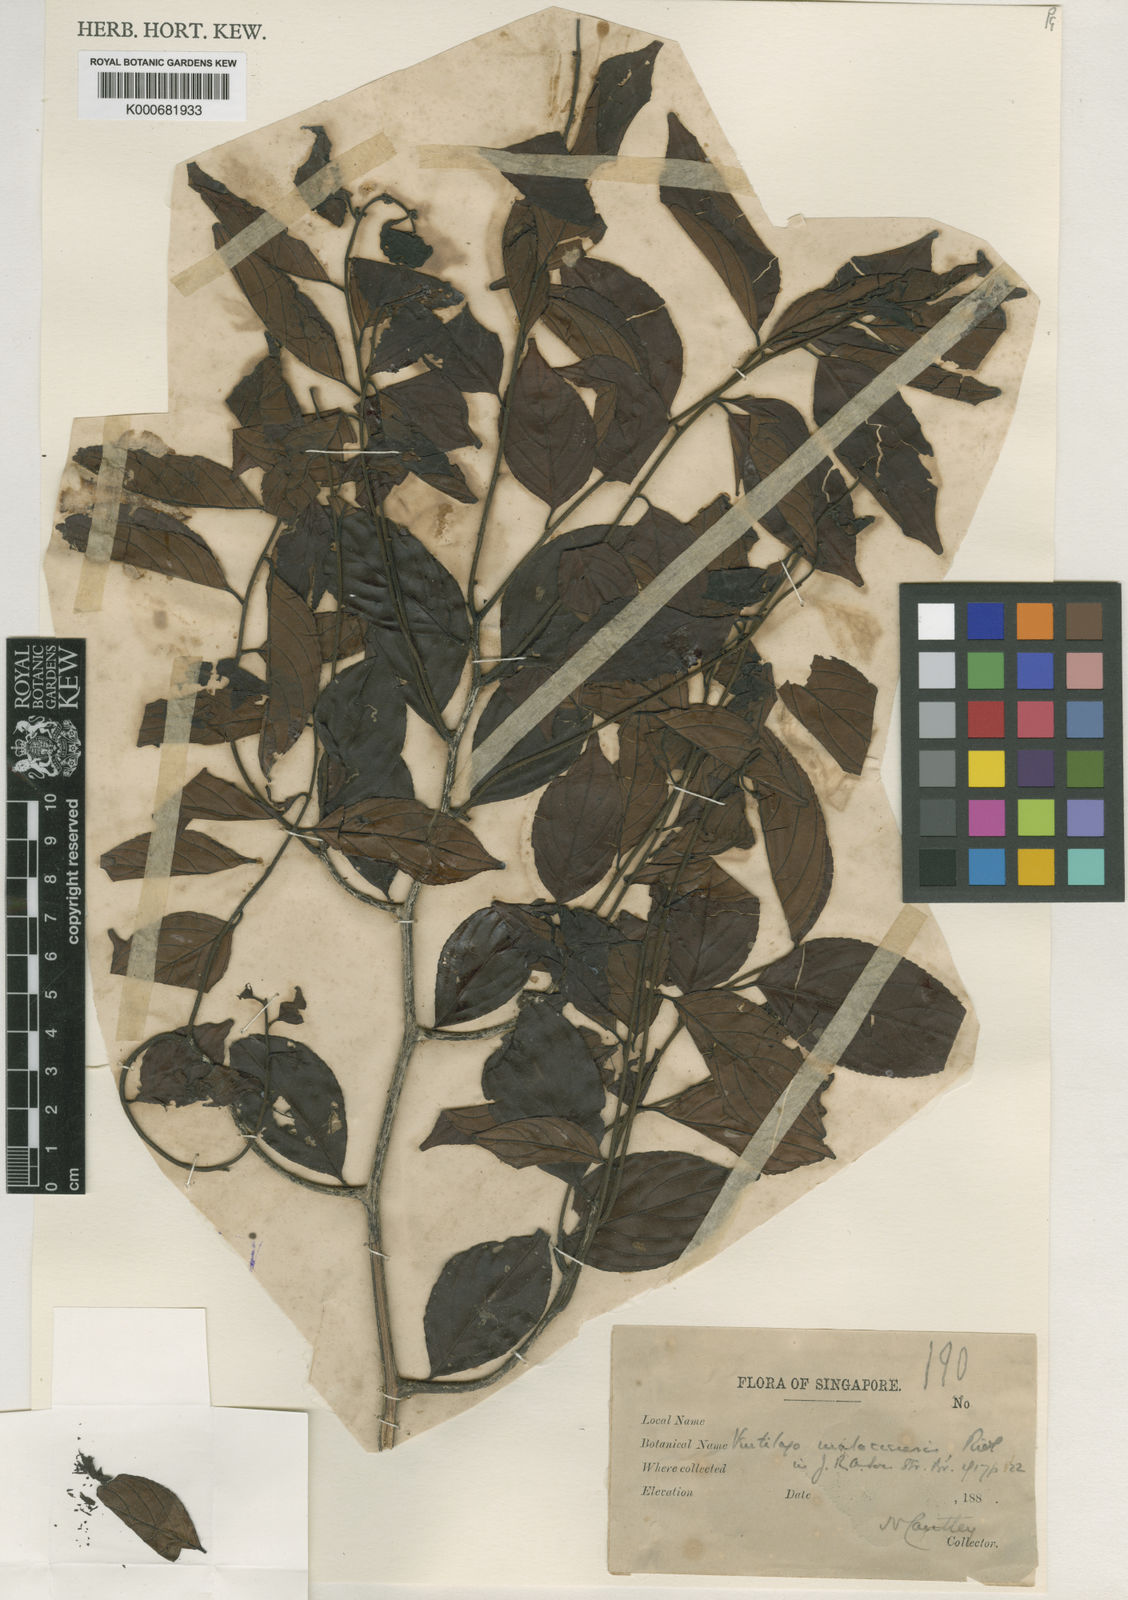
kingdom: Plantae
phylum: Tracheophyta
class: Magnoliopsida
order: Rosales
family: Rhamnaceae
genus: Ventilago
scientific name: Ventilago malaccensis
